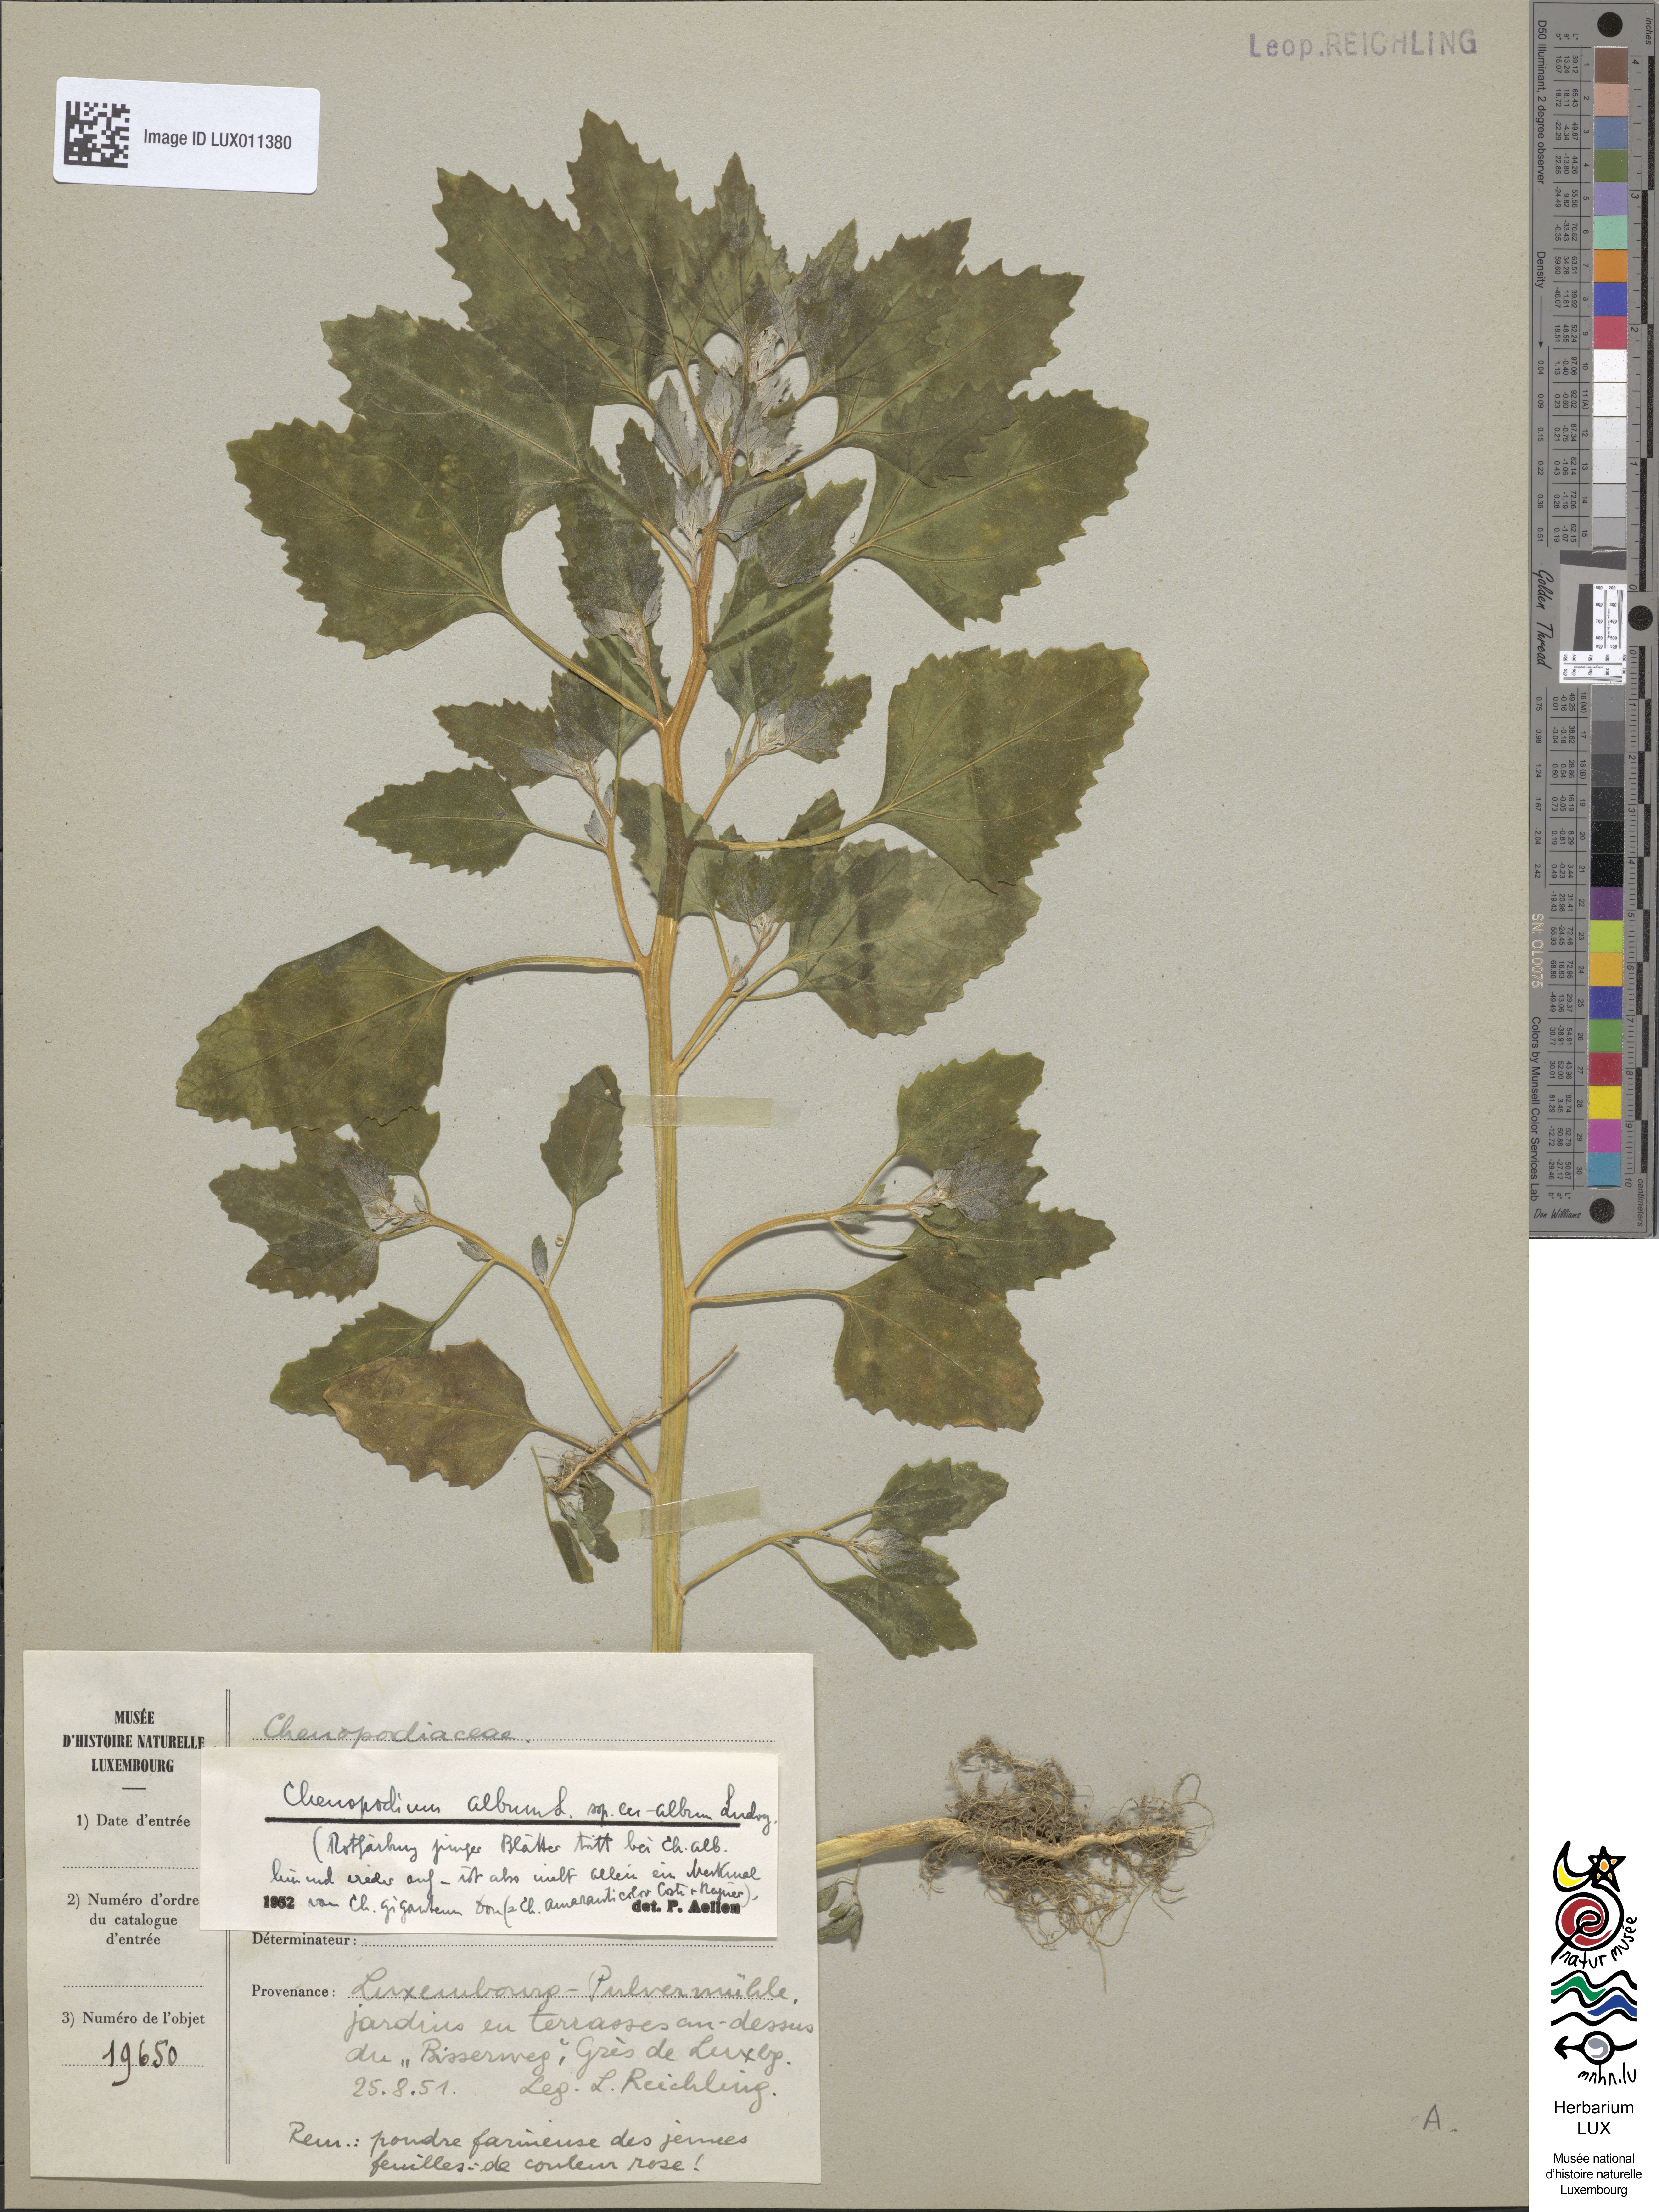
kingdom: Plantae
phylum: Tracheophyta
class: Magnoliopsida
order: Caryophyllales
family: Amaranthaceae
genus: Chenopodium
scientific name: Chenopodium album
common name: Fat-hen
